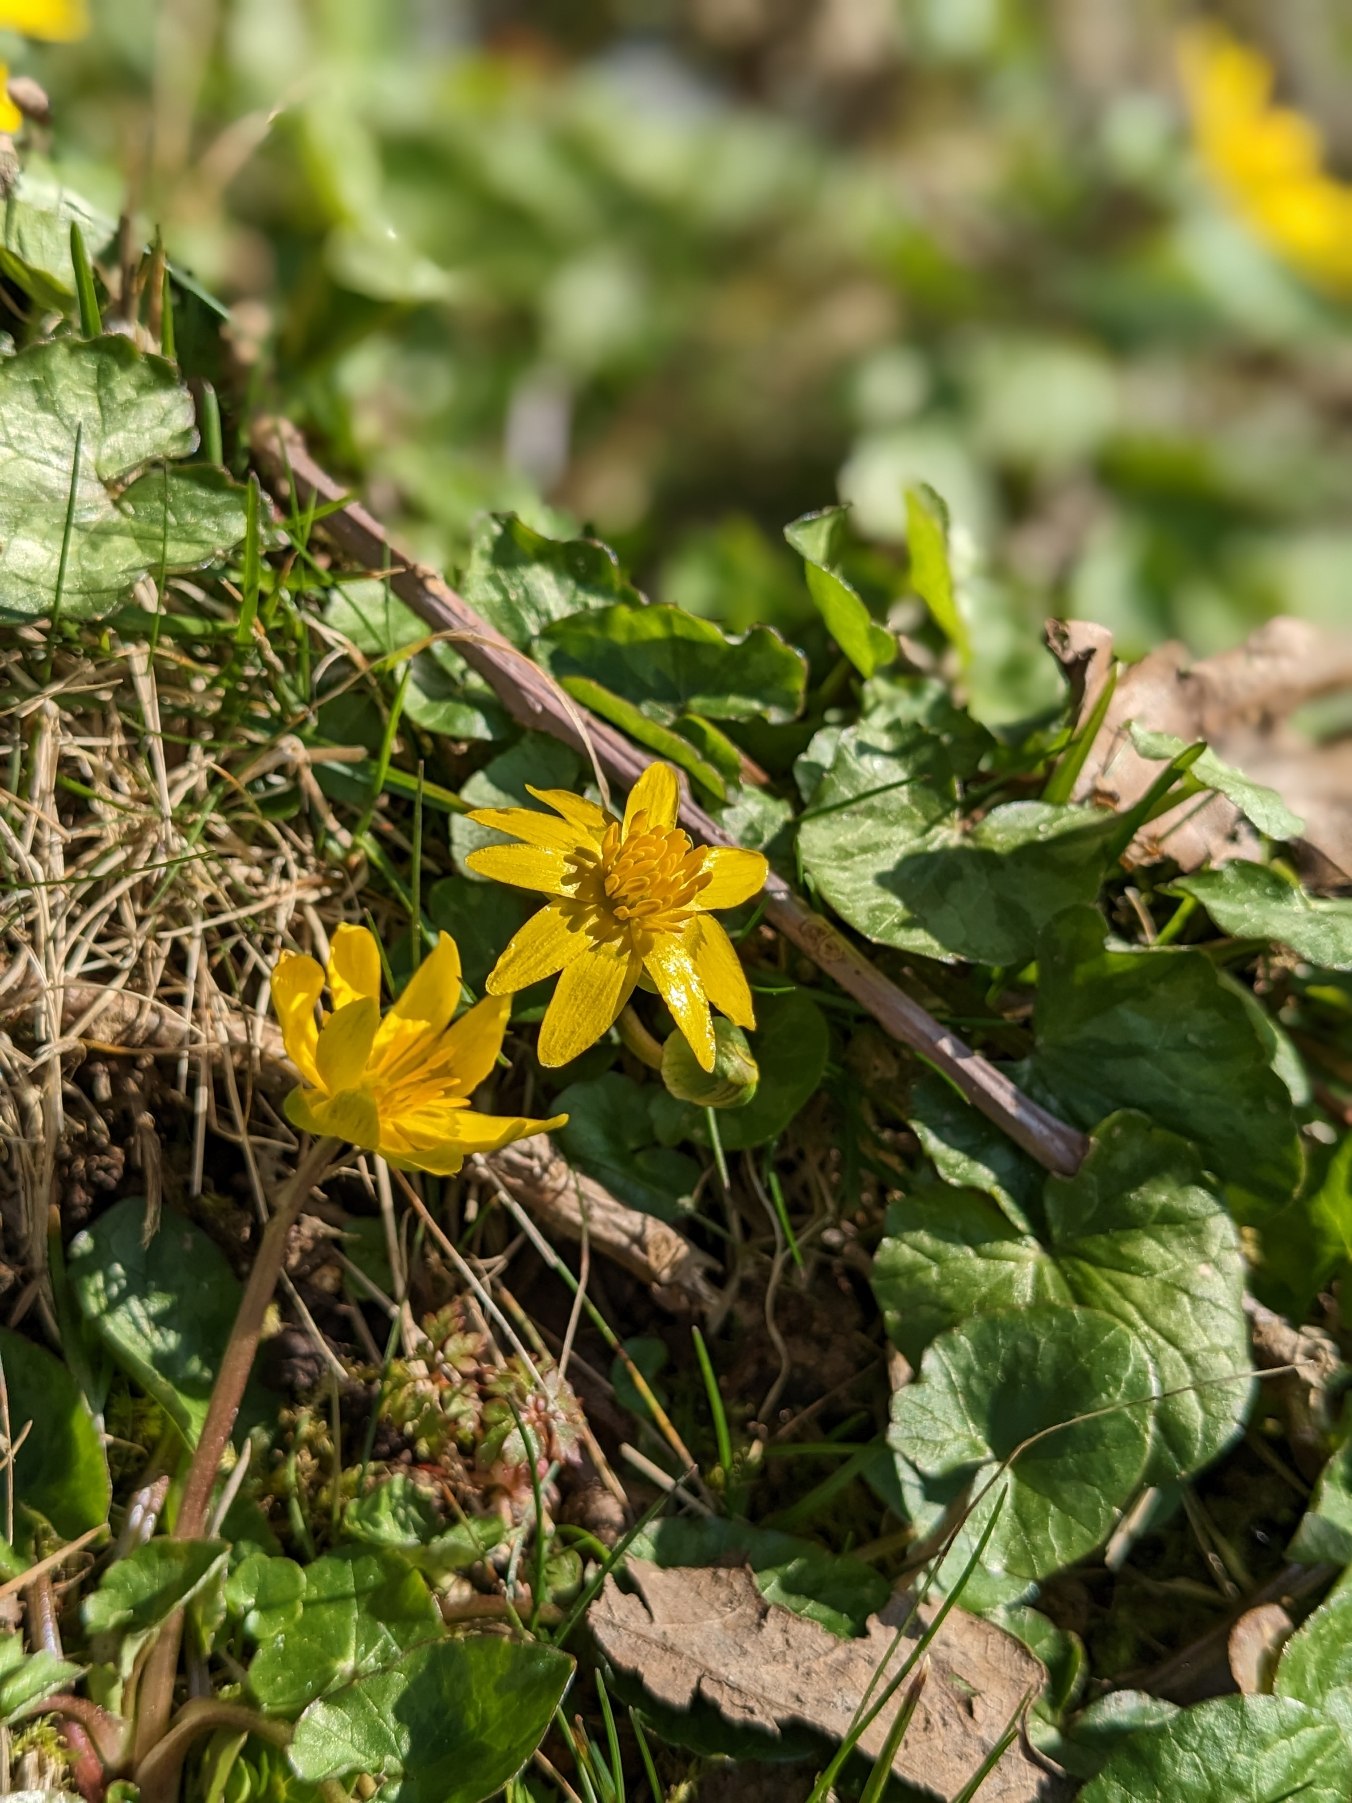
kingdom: Plantae
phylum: Tracheophyta
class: Magnoliopsida
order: Ranunculales
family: Ranunculaceae
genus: Ficaria
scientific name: Ficaria verna
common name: Vorterod
